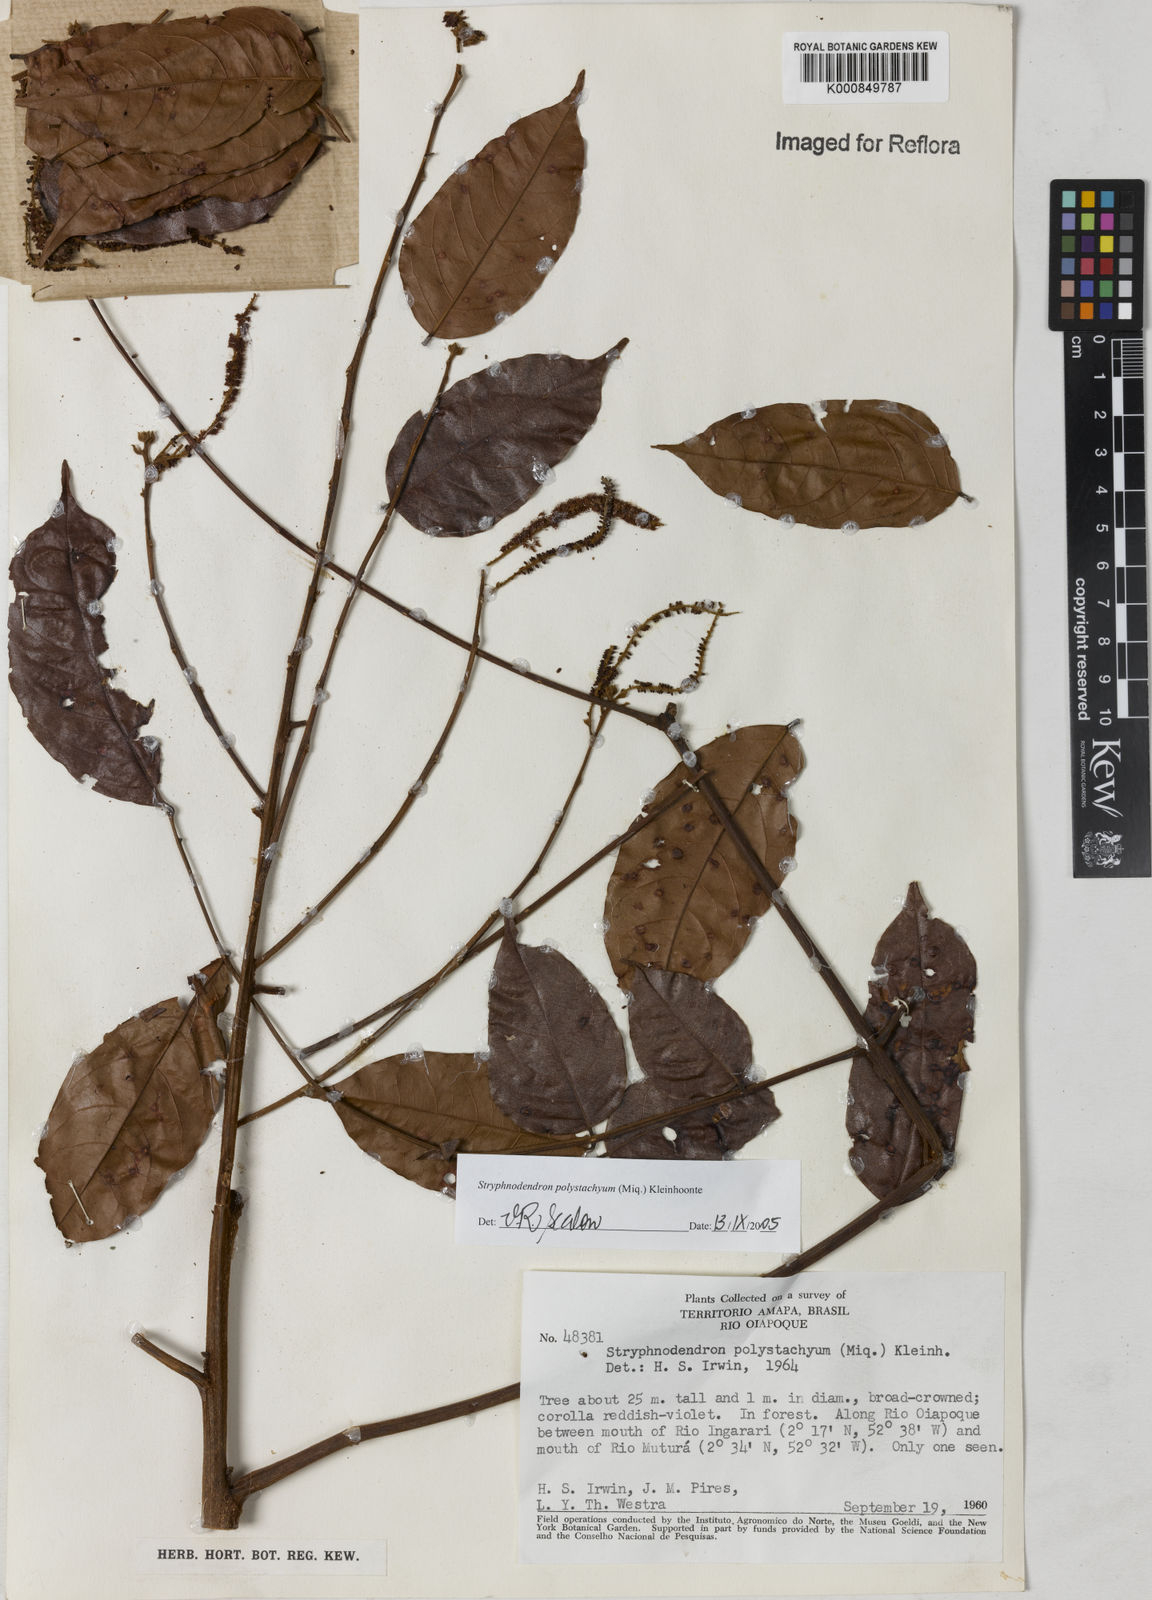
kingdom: Plantae
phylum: Tracheophyta
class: Magnoliopsida
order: Fabales
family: Fabaceae
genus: Stryphnodendron
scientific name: Stryphnodendron polystachyum
